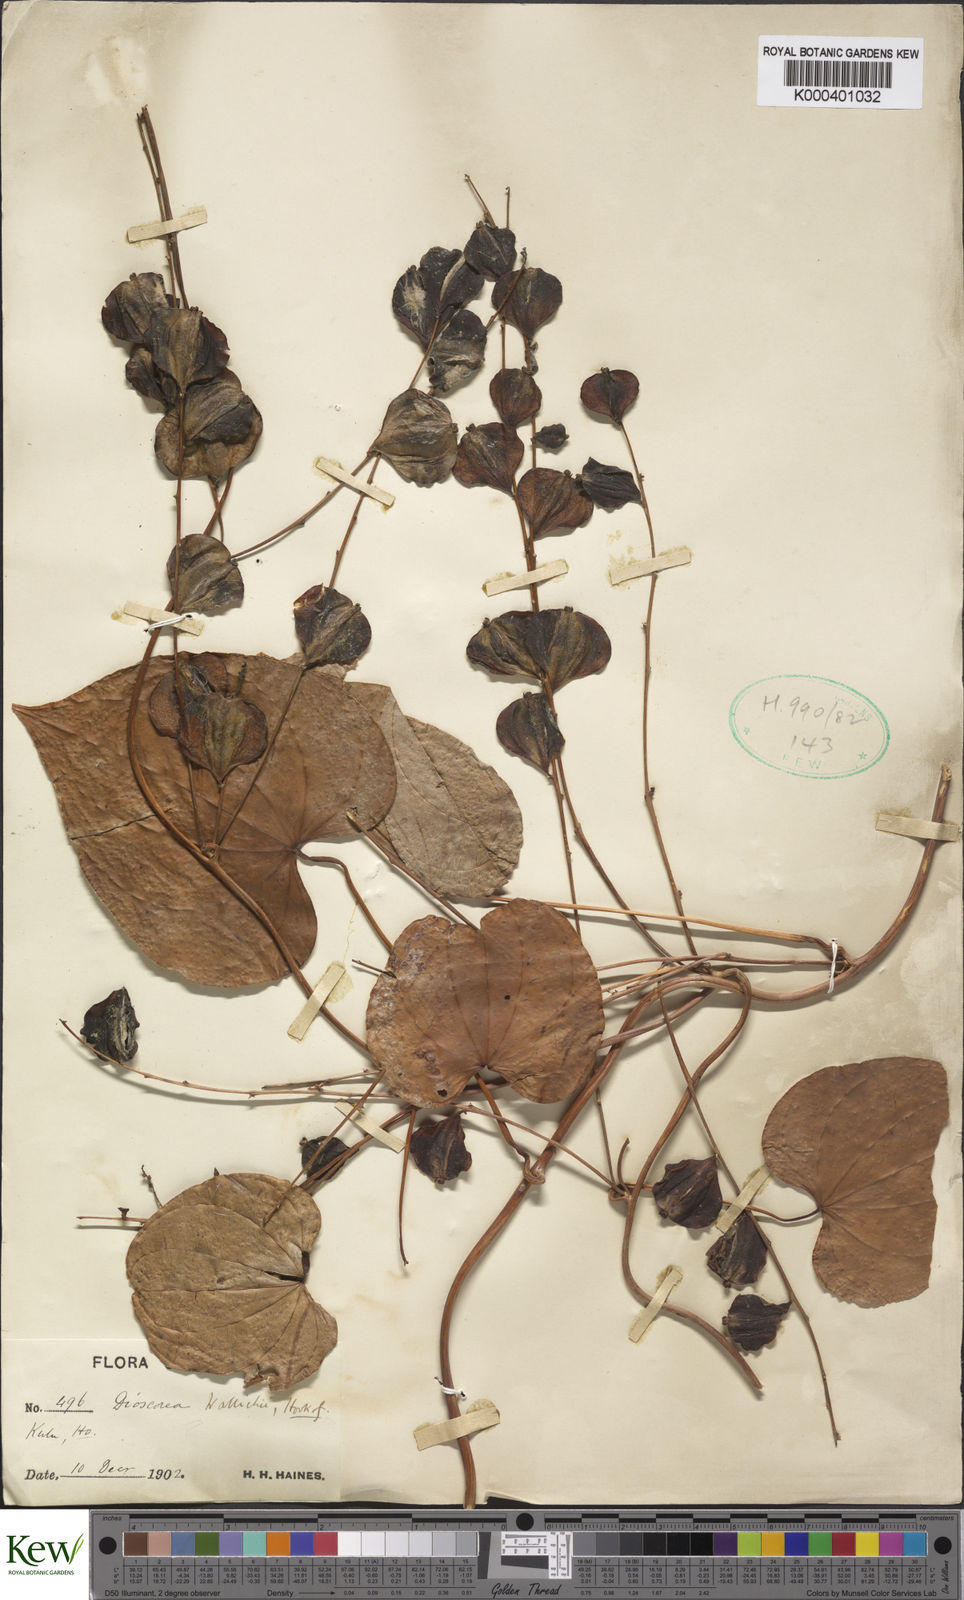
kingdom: Plantae
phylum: Tracheophyta
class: Liliopsida
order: Dioscoreales
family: Dioscoreaceae
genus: Dioscorea
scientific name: Dioscorea wallichii
